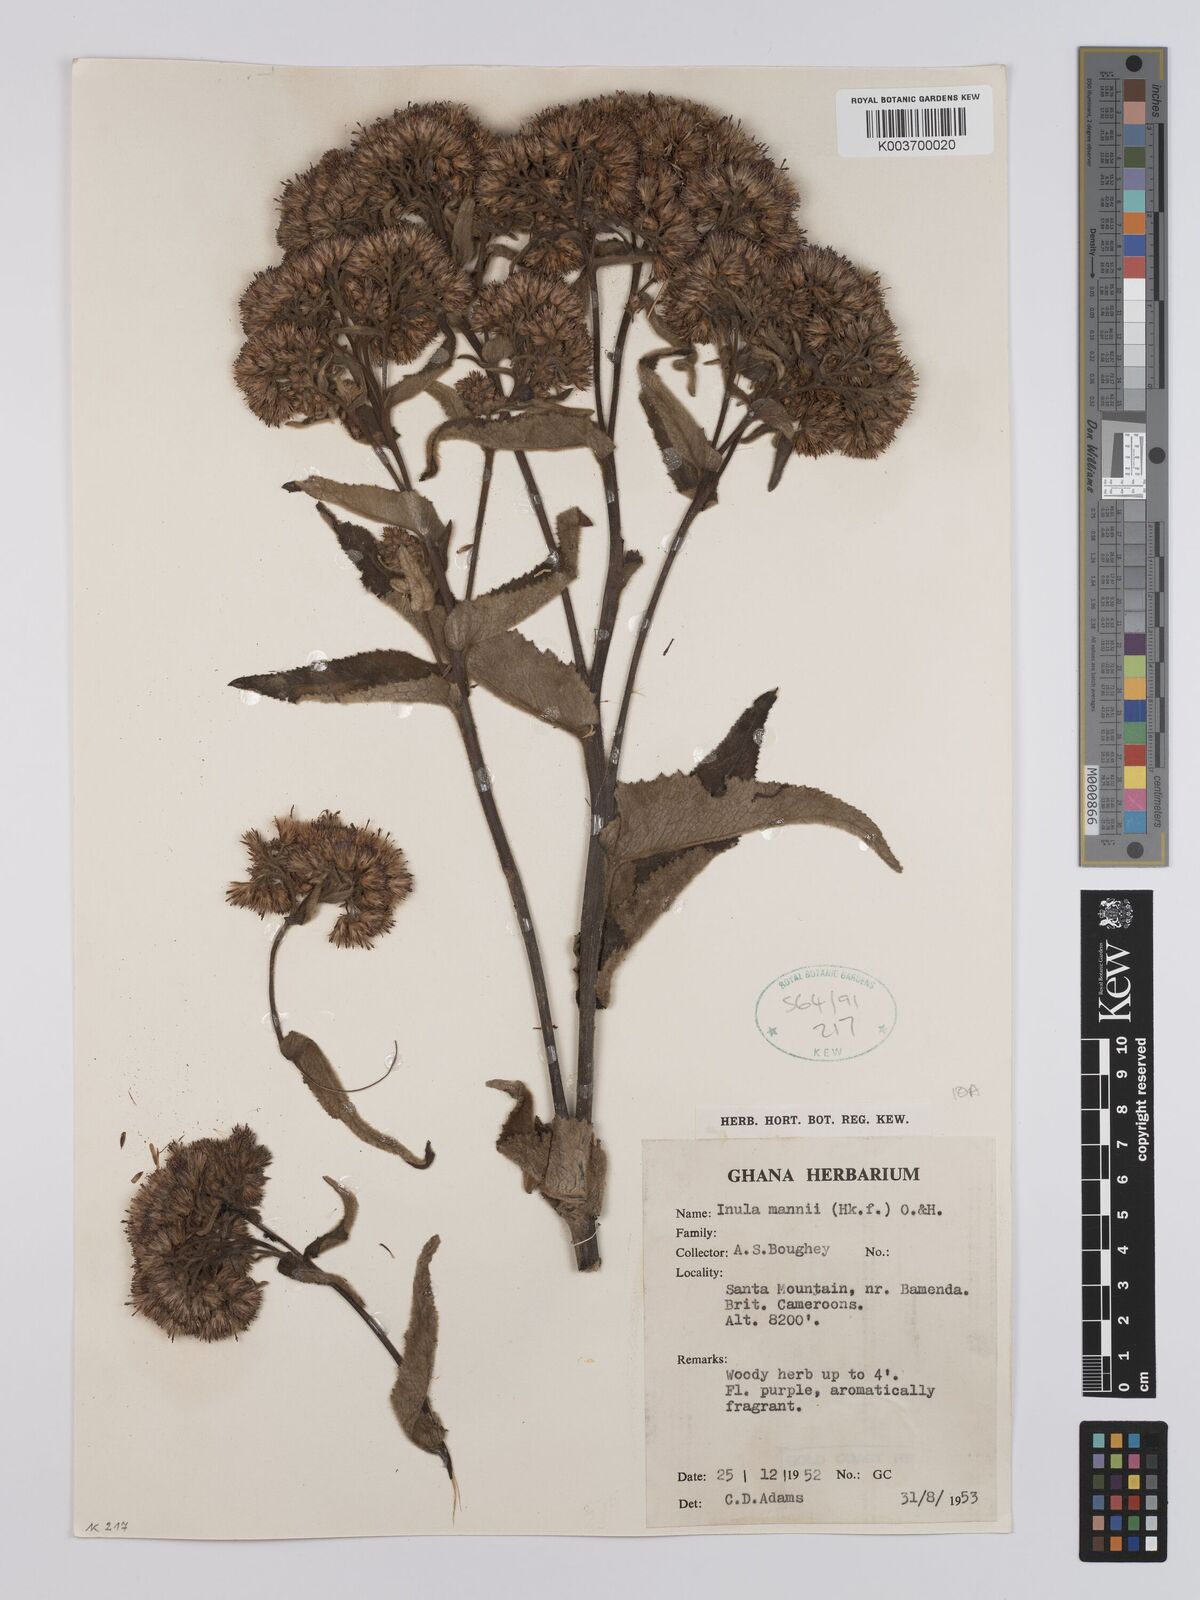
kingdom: Plantae
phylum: Tracheophyta
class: Magnoliopsida
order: Asterales
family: Asteraceae
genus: Inula
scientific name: Inula mannii
